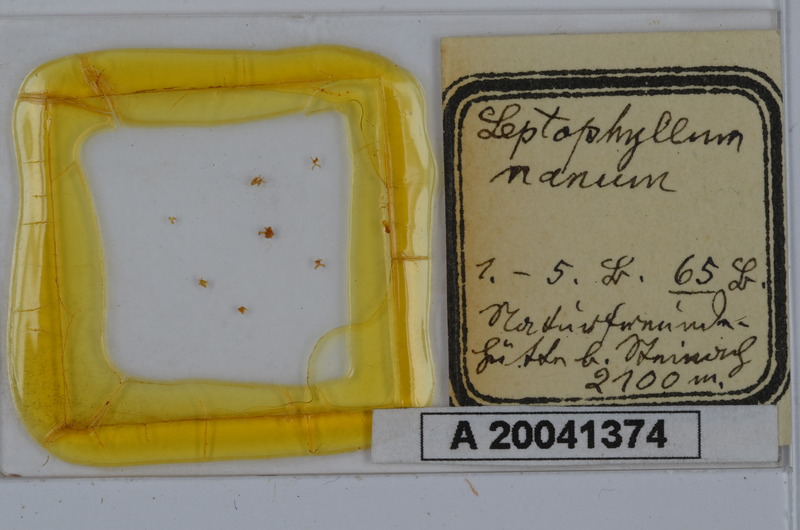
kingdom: Animalia
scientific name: Animalia
